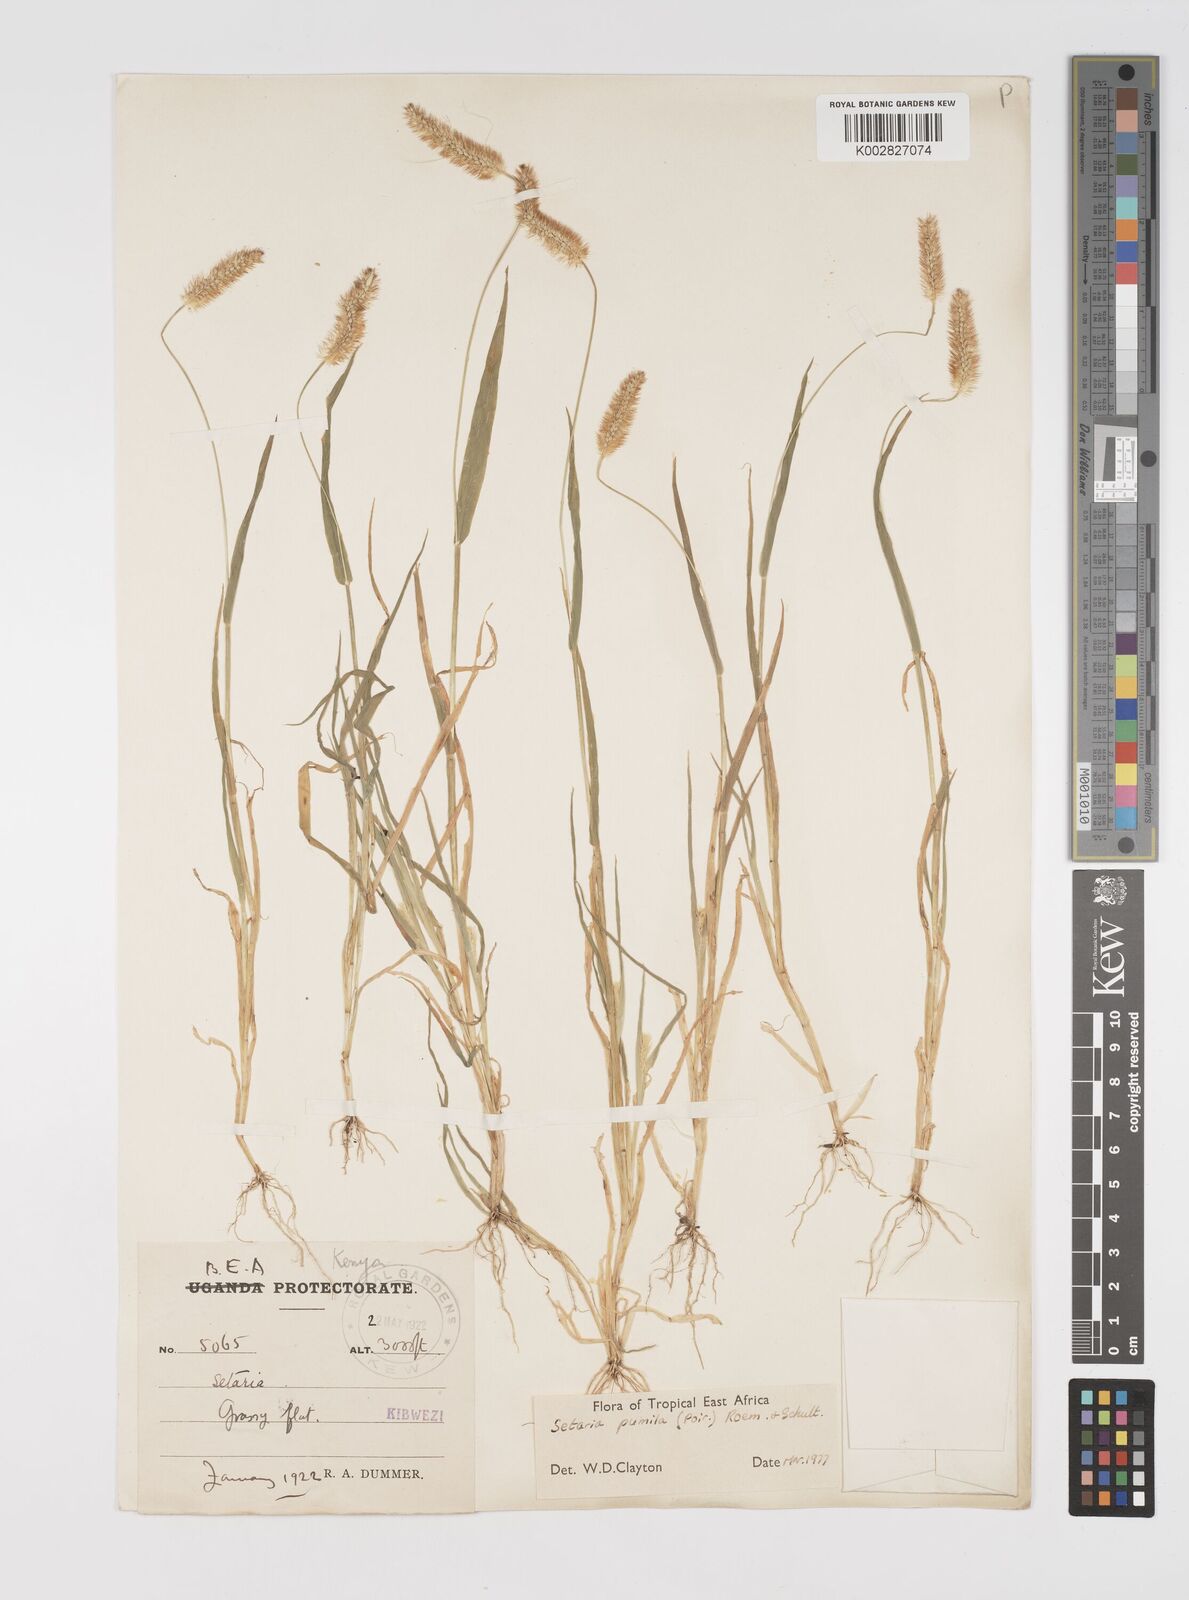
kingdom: Plantae
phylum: Tracheophyta
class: Liliopsida
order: Poales
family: Poaceae
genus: Setaria
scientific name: Setaria pumila
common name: Yellow bristle-grass
